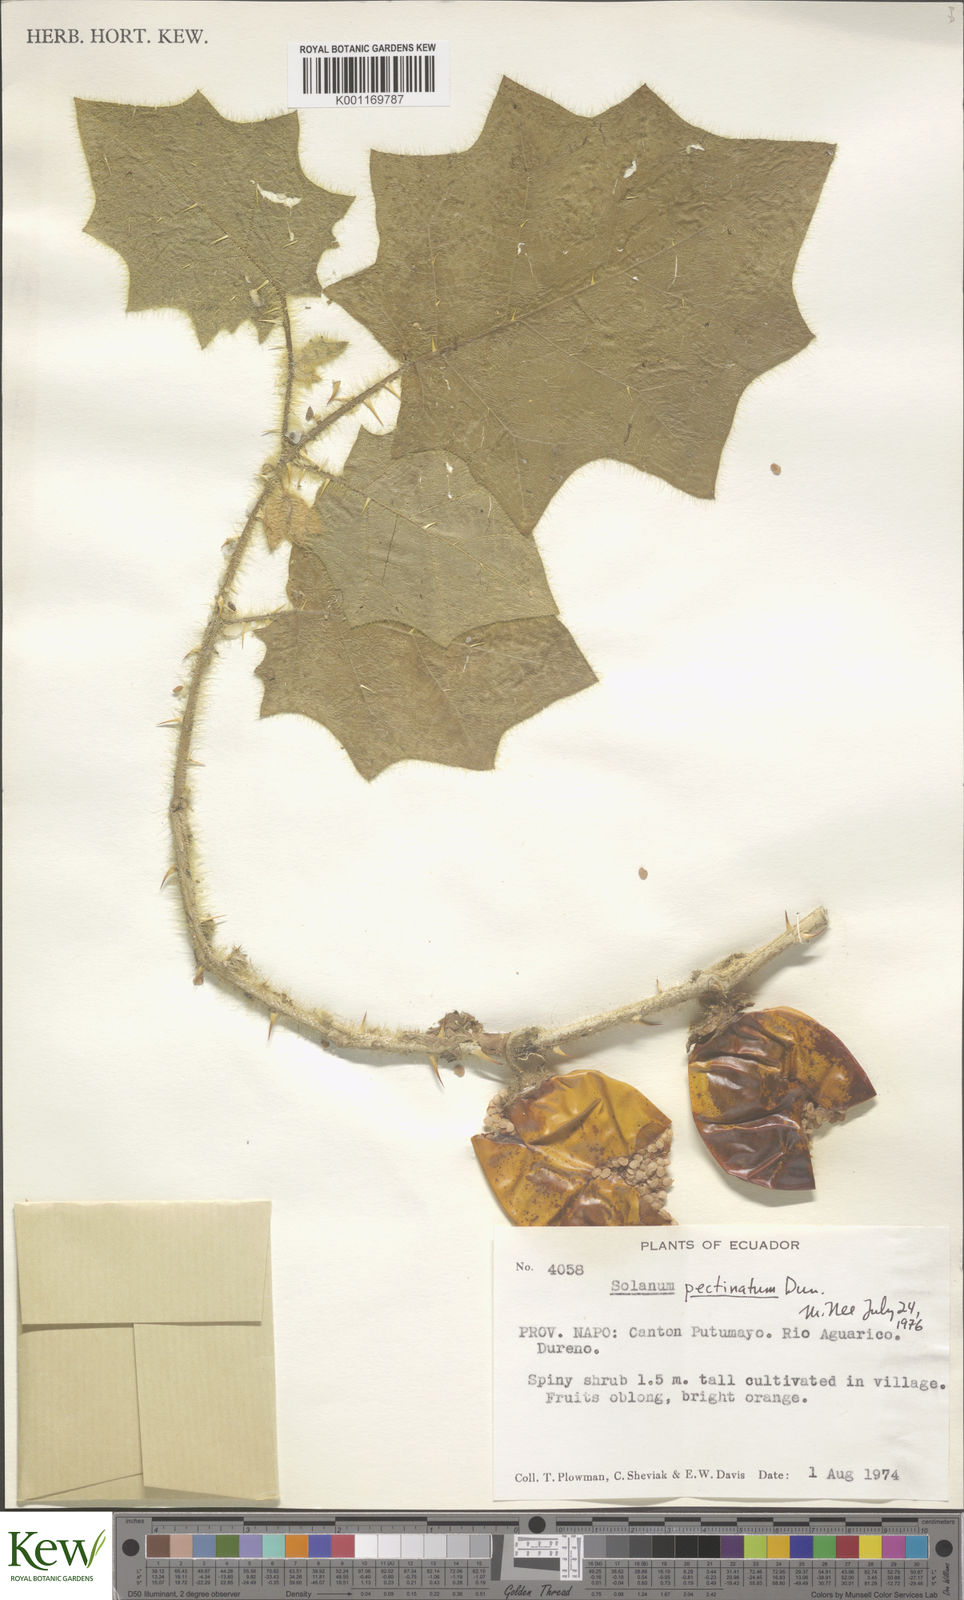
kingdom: Plantae
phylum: Tracheophyta
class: Magnoliopsida
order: Solanales
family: Solanaceae
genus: Solanum
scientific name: Solanum pectinatum
